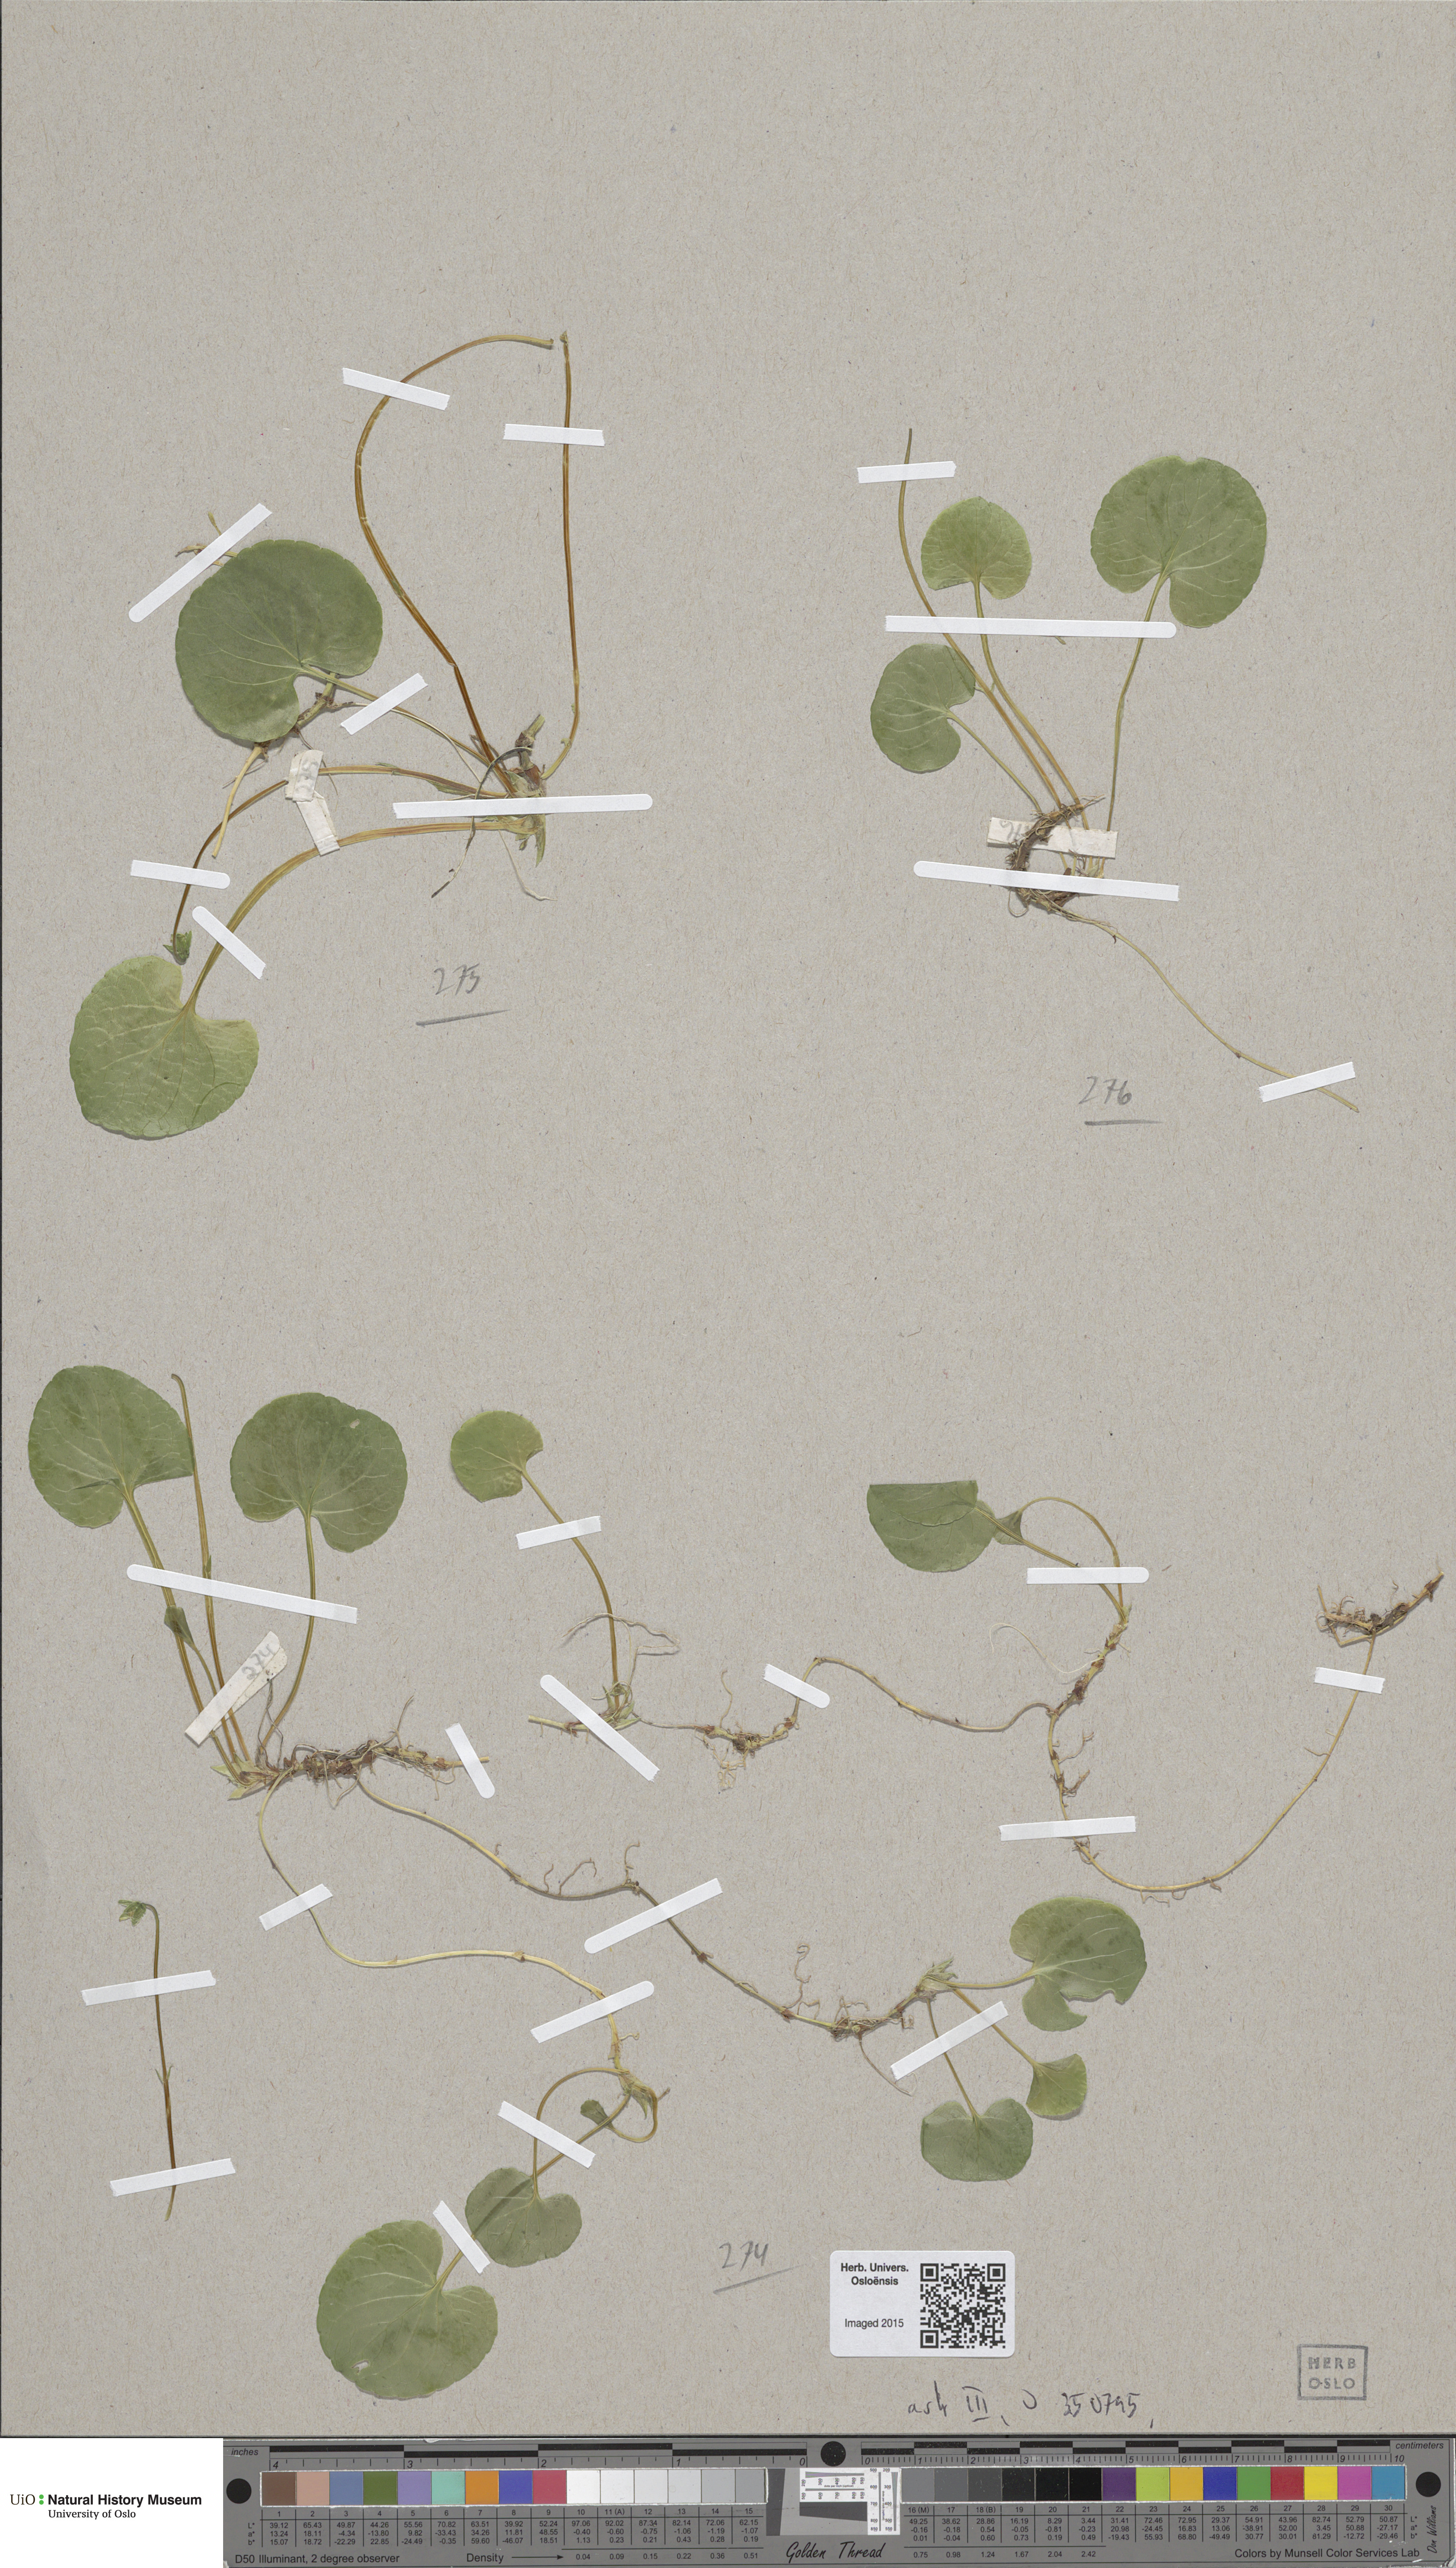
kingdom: Plantae
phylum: Tracheophyta
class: Magnoliopsida
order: Malpighiales
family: Violaceae
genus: Viola
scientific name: Viola palustris
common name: Marsh violet
